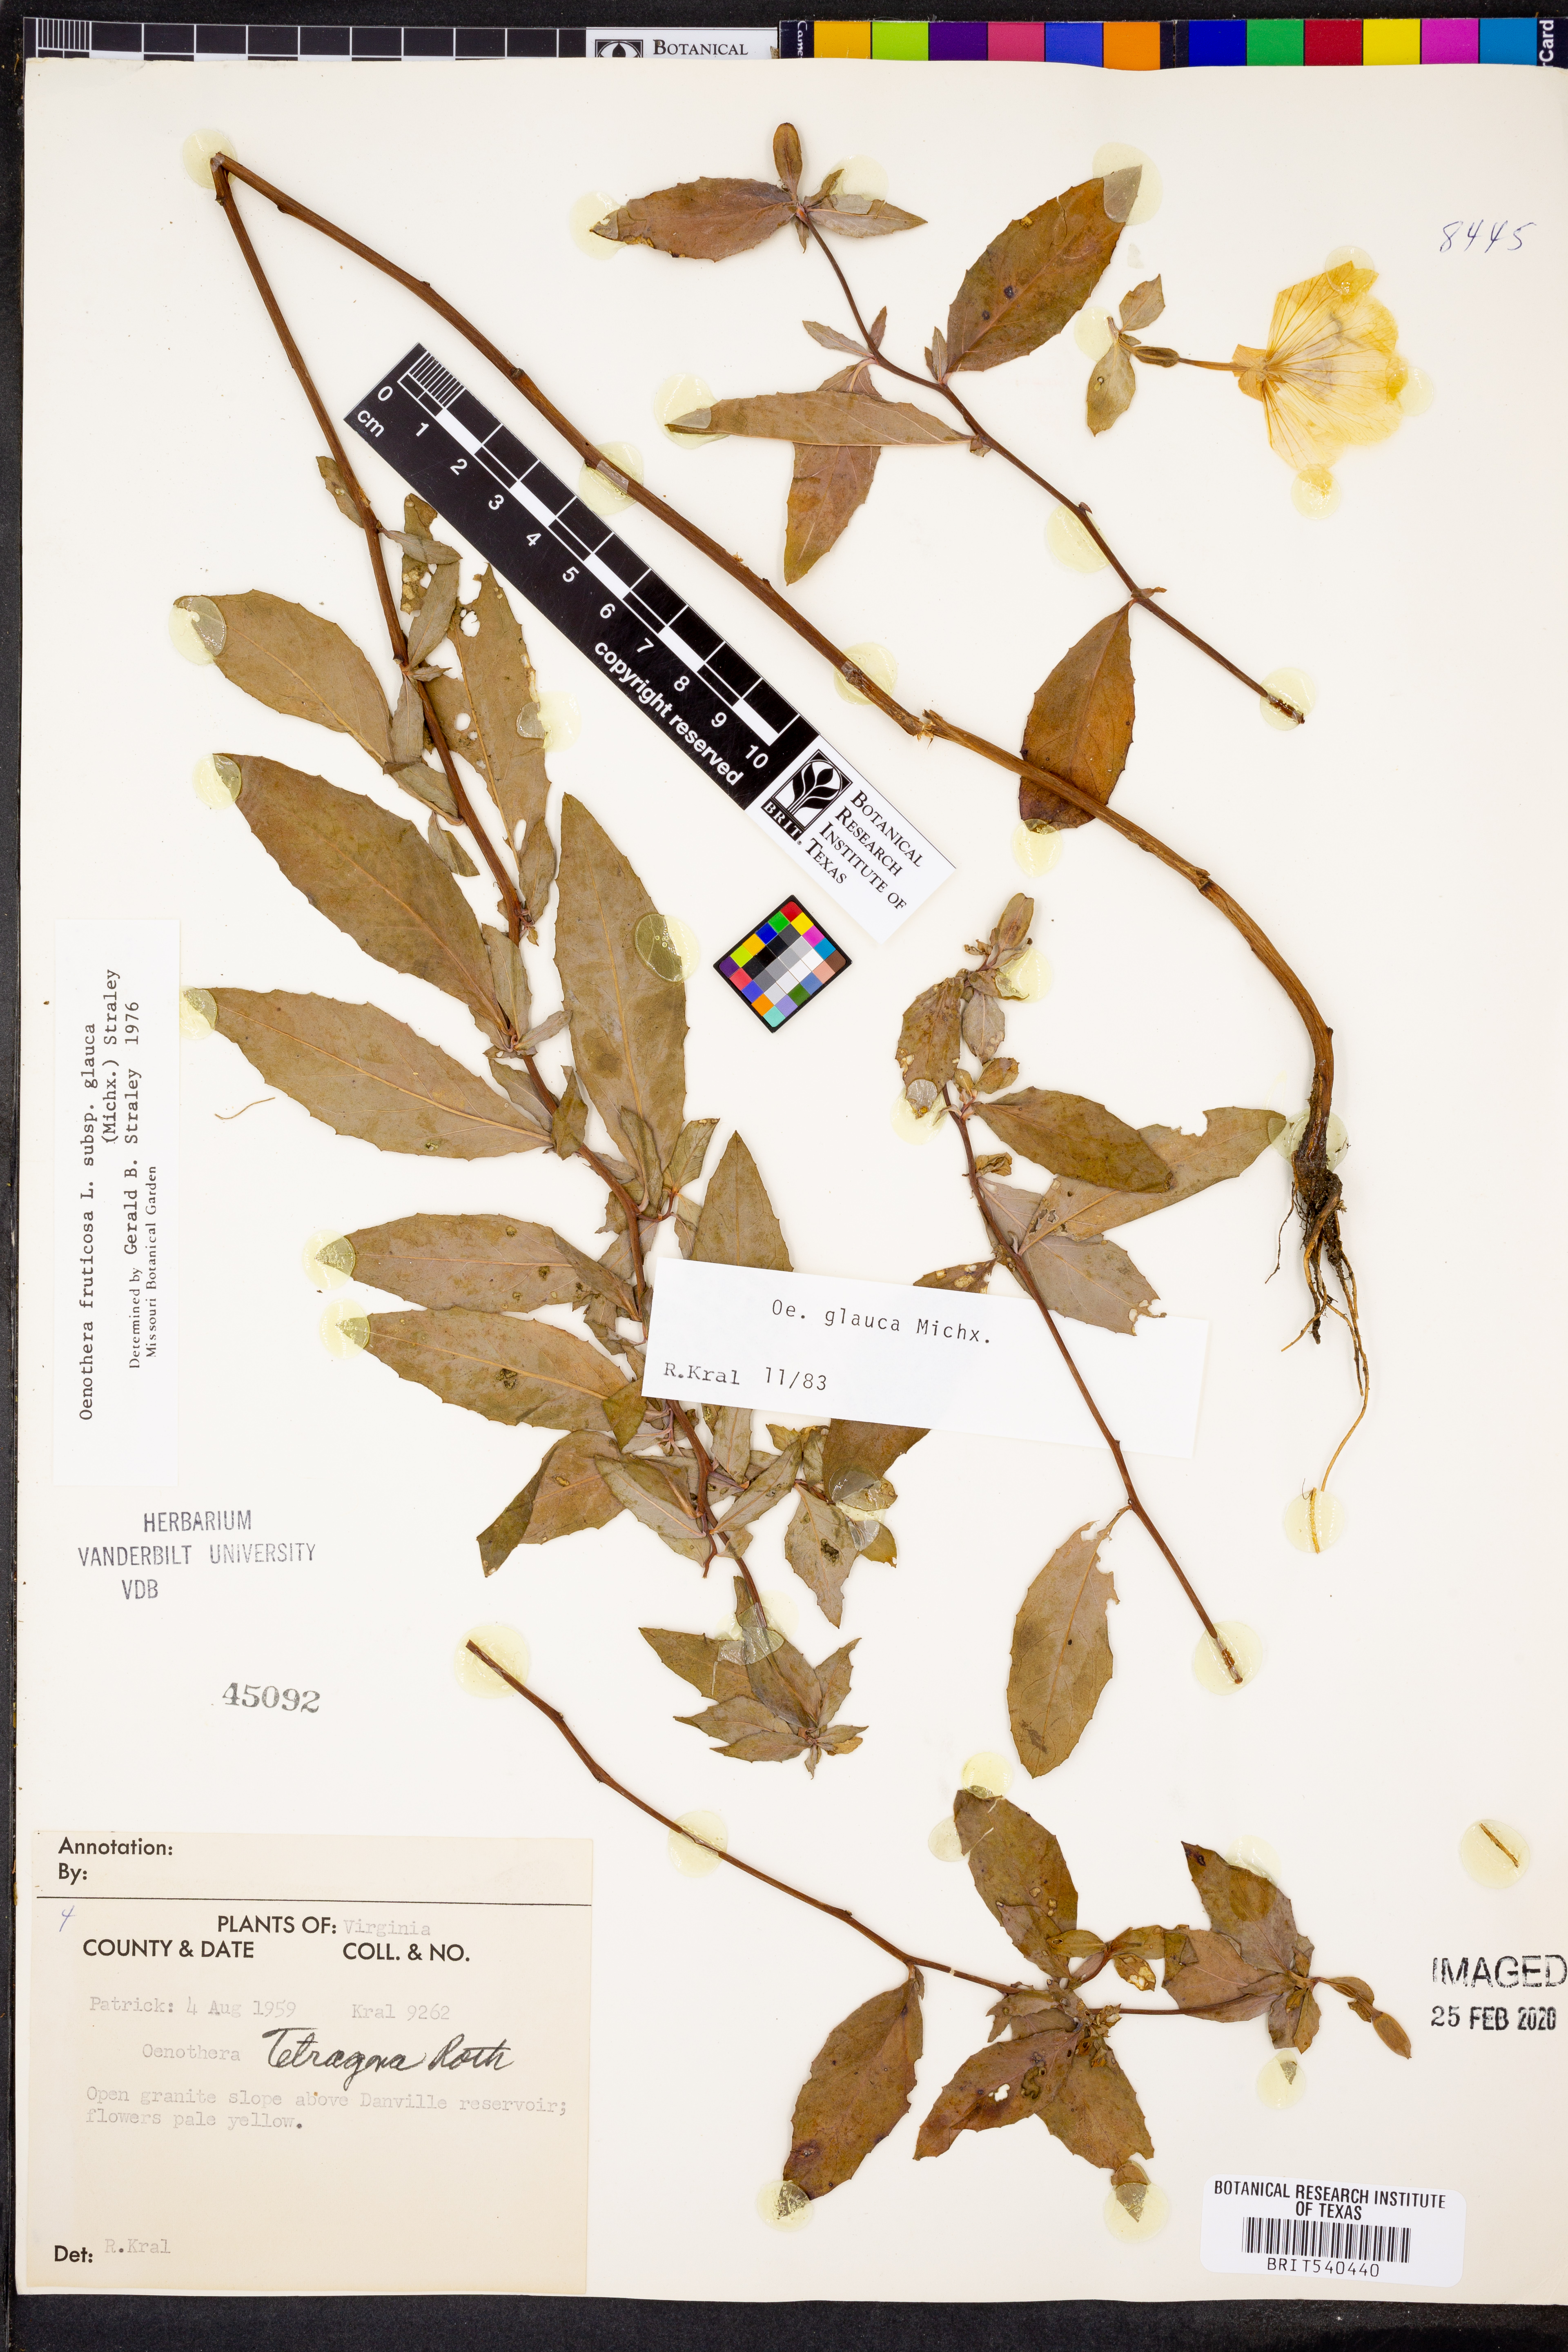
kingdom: Plantae
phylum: Tracheophyta
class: Magnoliopsida
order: Myrtales
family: Onagraceae
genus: Oenothera
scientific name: Oenothera tetragona
